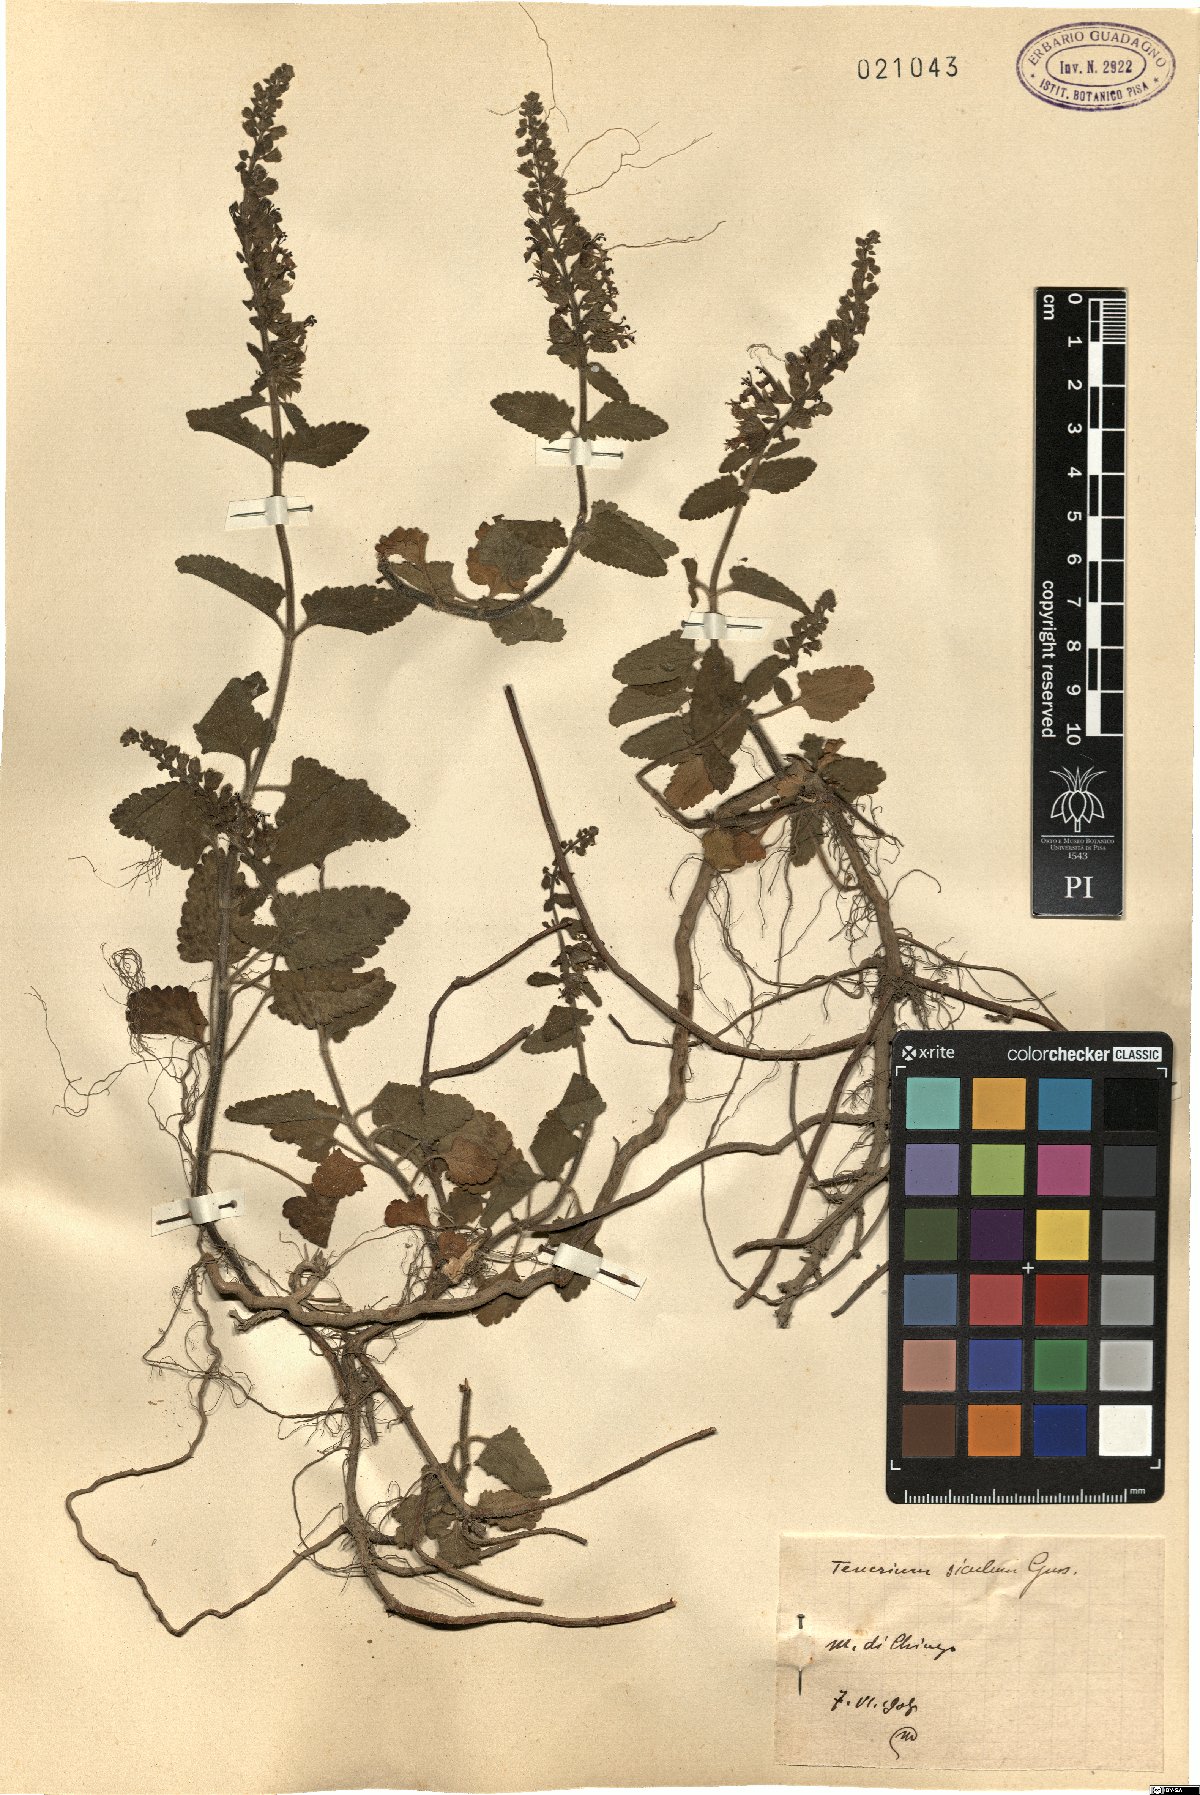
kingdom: Plantae
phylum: Tracheophyta
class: Magnoliopsida
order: Lamiales
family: Lamiaceae
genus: Teucrium
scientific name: Teucrium siculum
